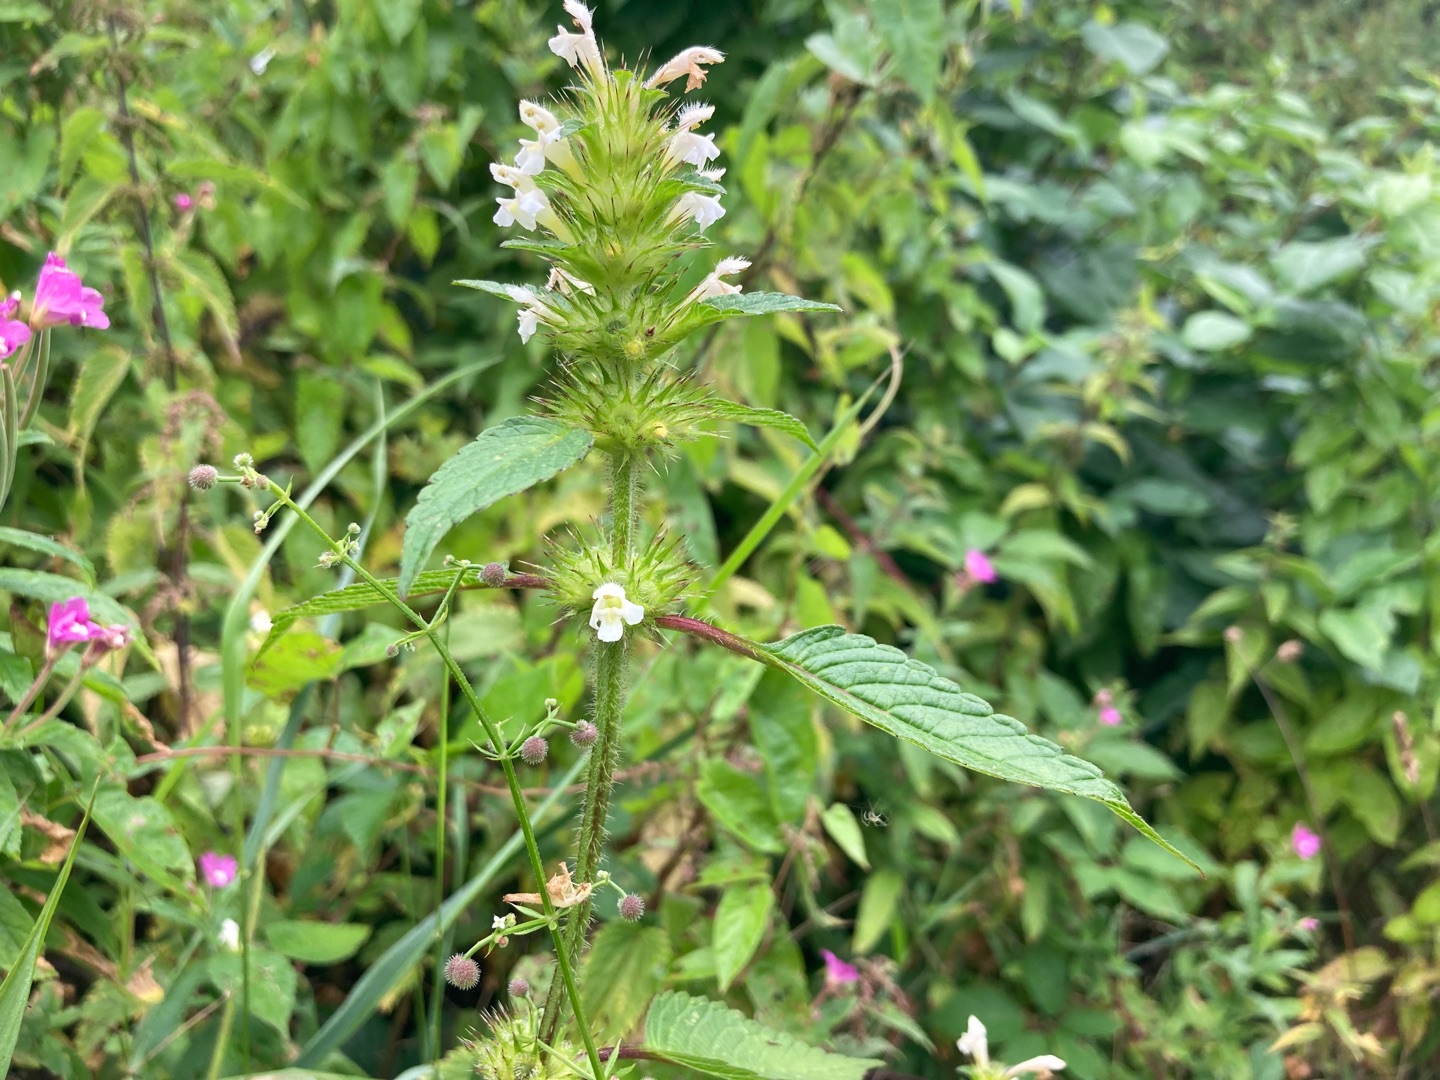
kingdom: Plantae
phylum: Tracheophyta
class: Magnoliopsida
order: Lamiales
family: Lamiaceae
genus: Galeopsis
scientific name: Galeopsis tetrahit
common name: Almindelig hanekro
